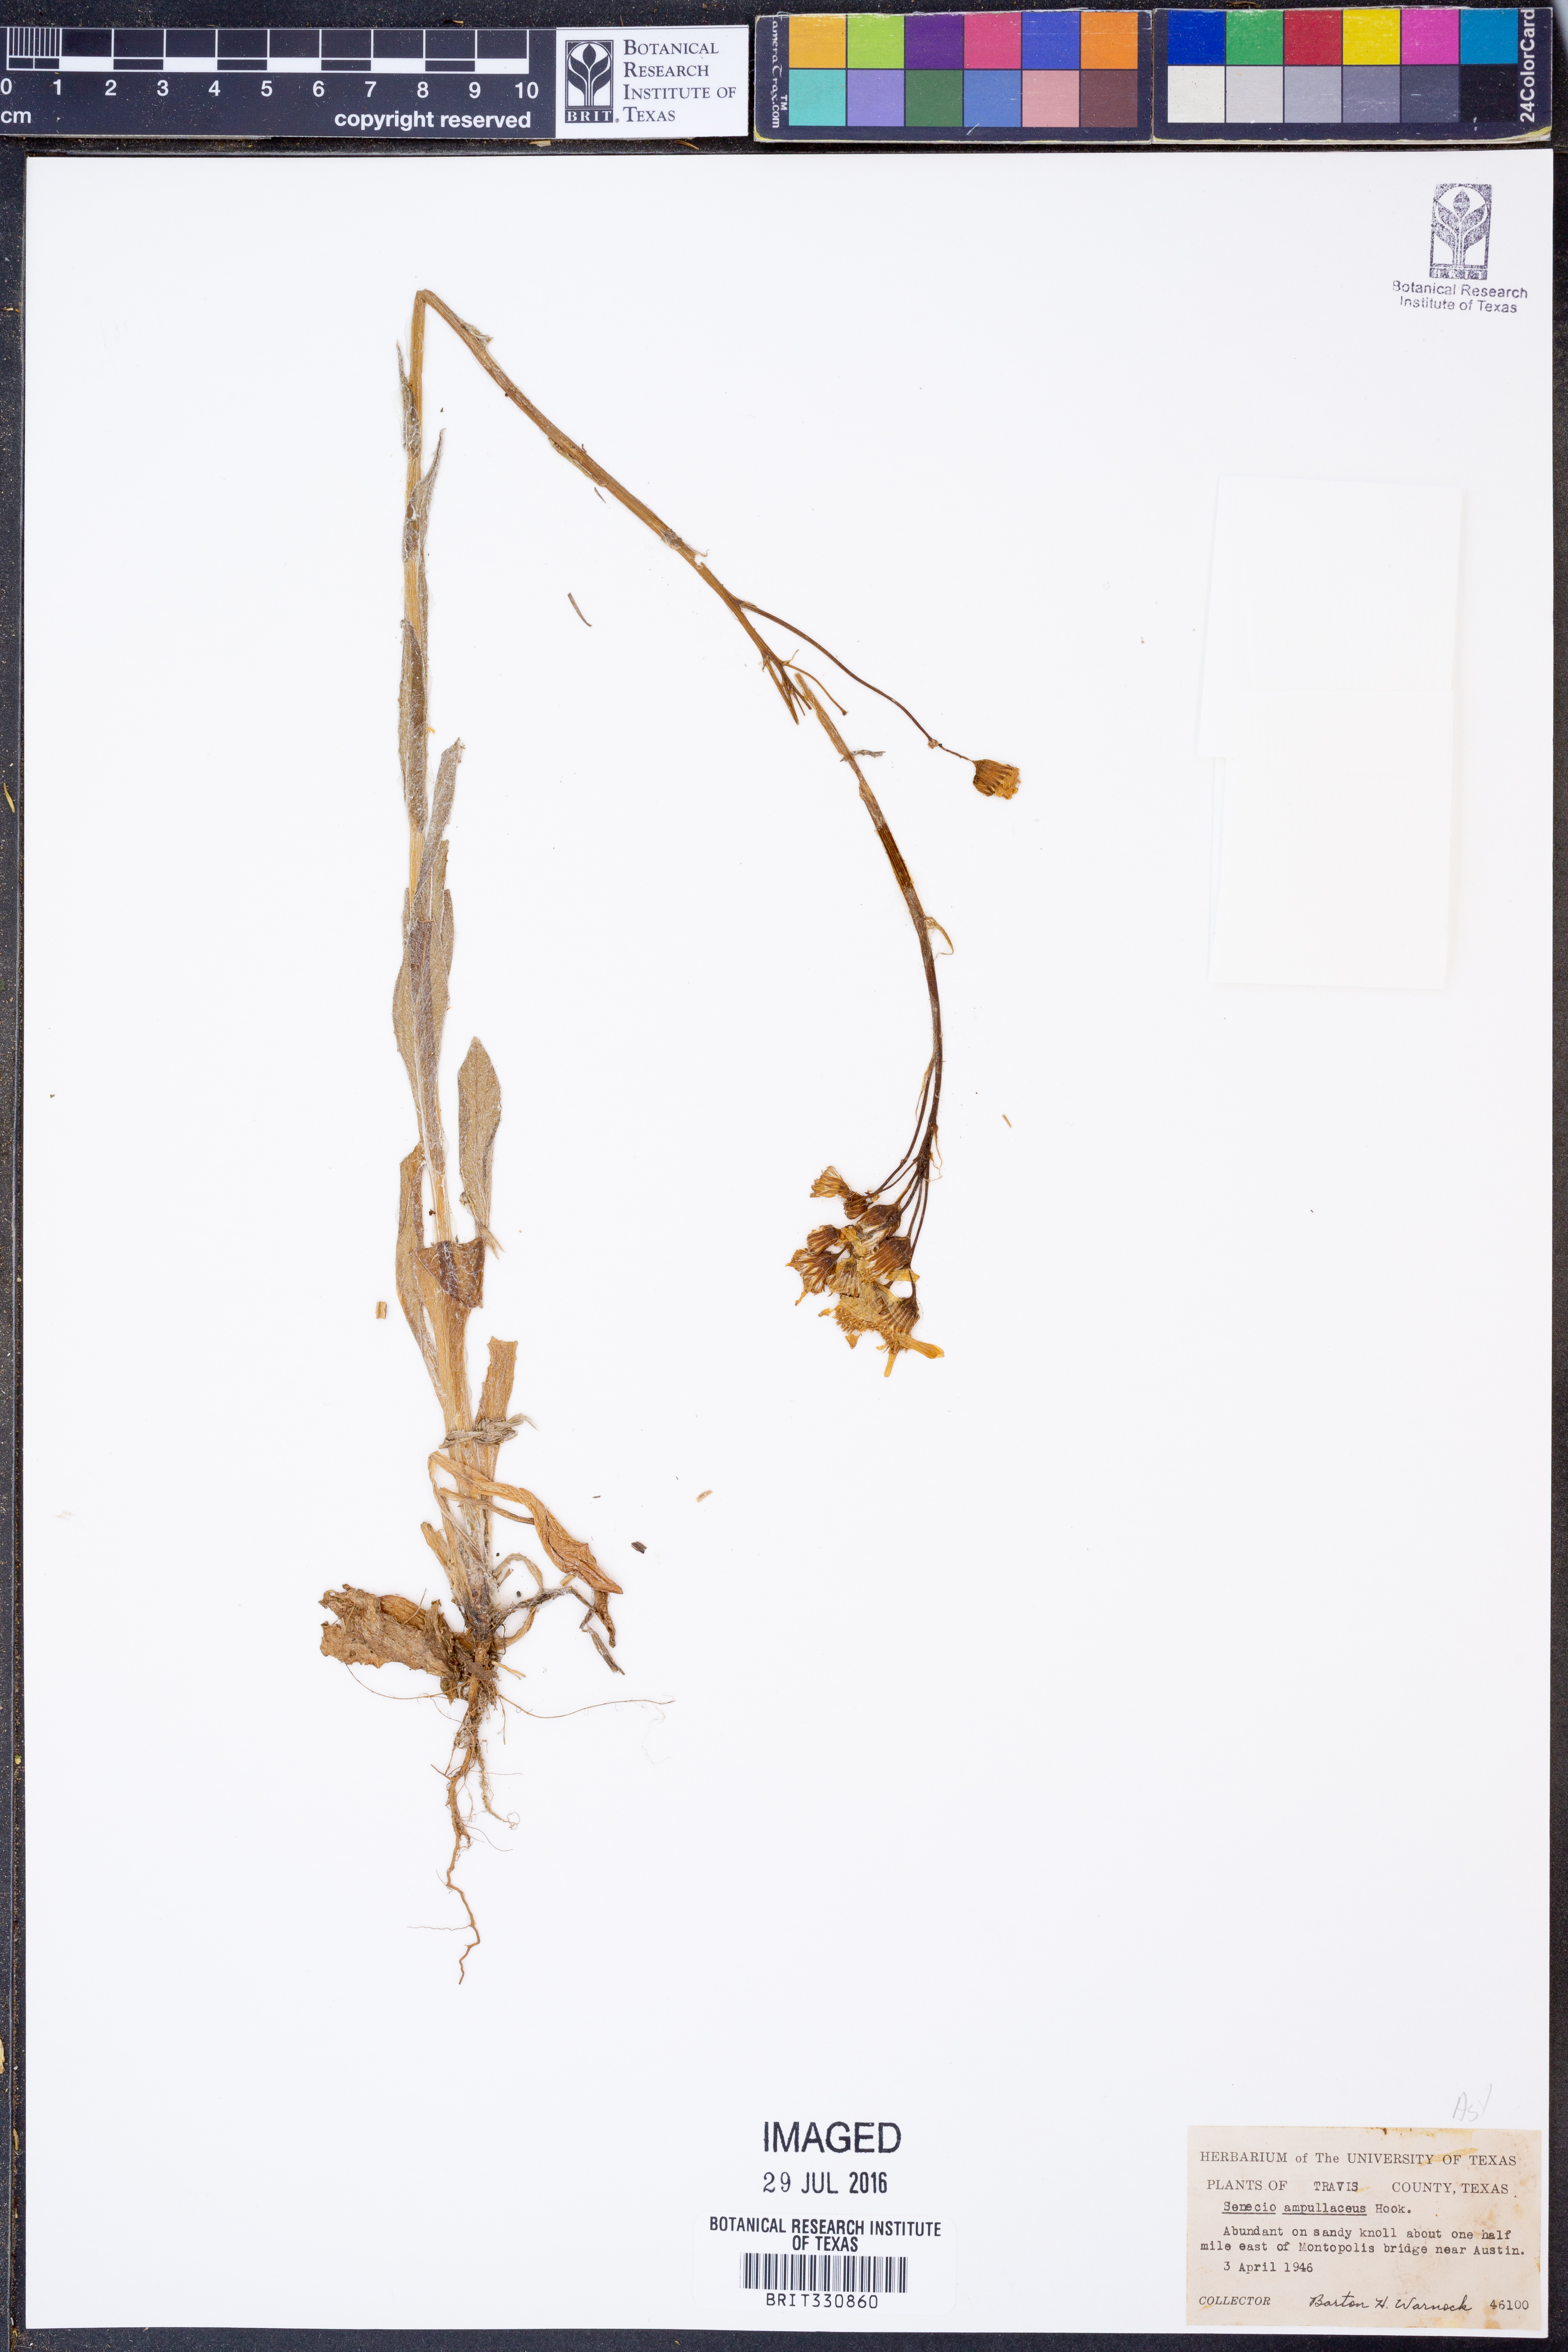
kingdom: Plantae
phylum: Tracheophyta
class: Magnoliopsida
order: Asterales
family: Asteraceae
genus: Senecio
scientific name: Senecio ampullaceus
